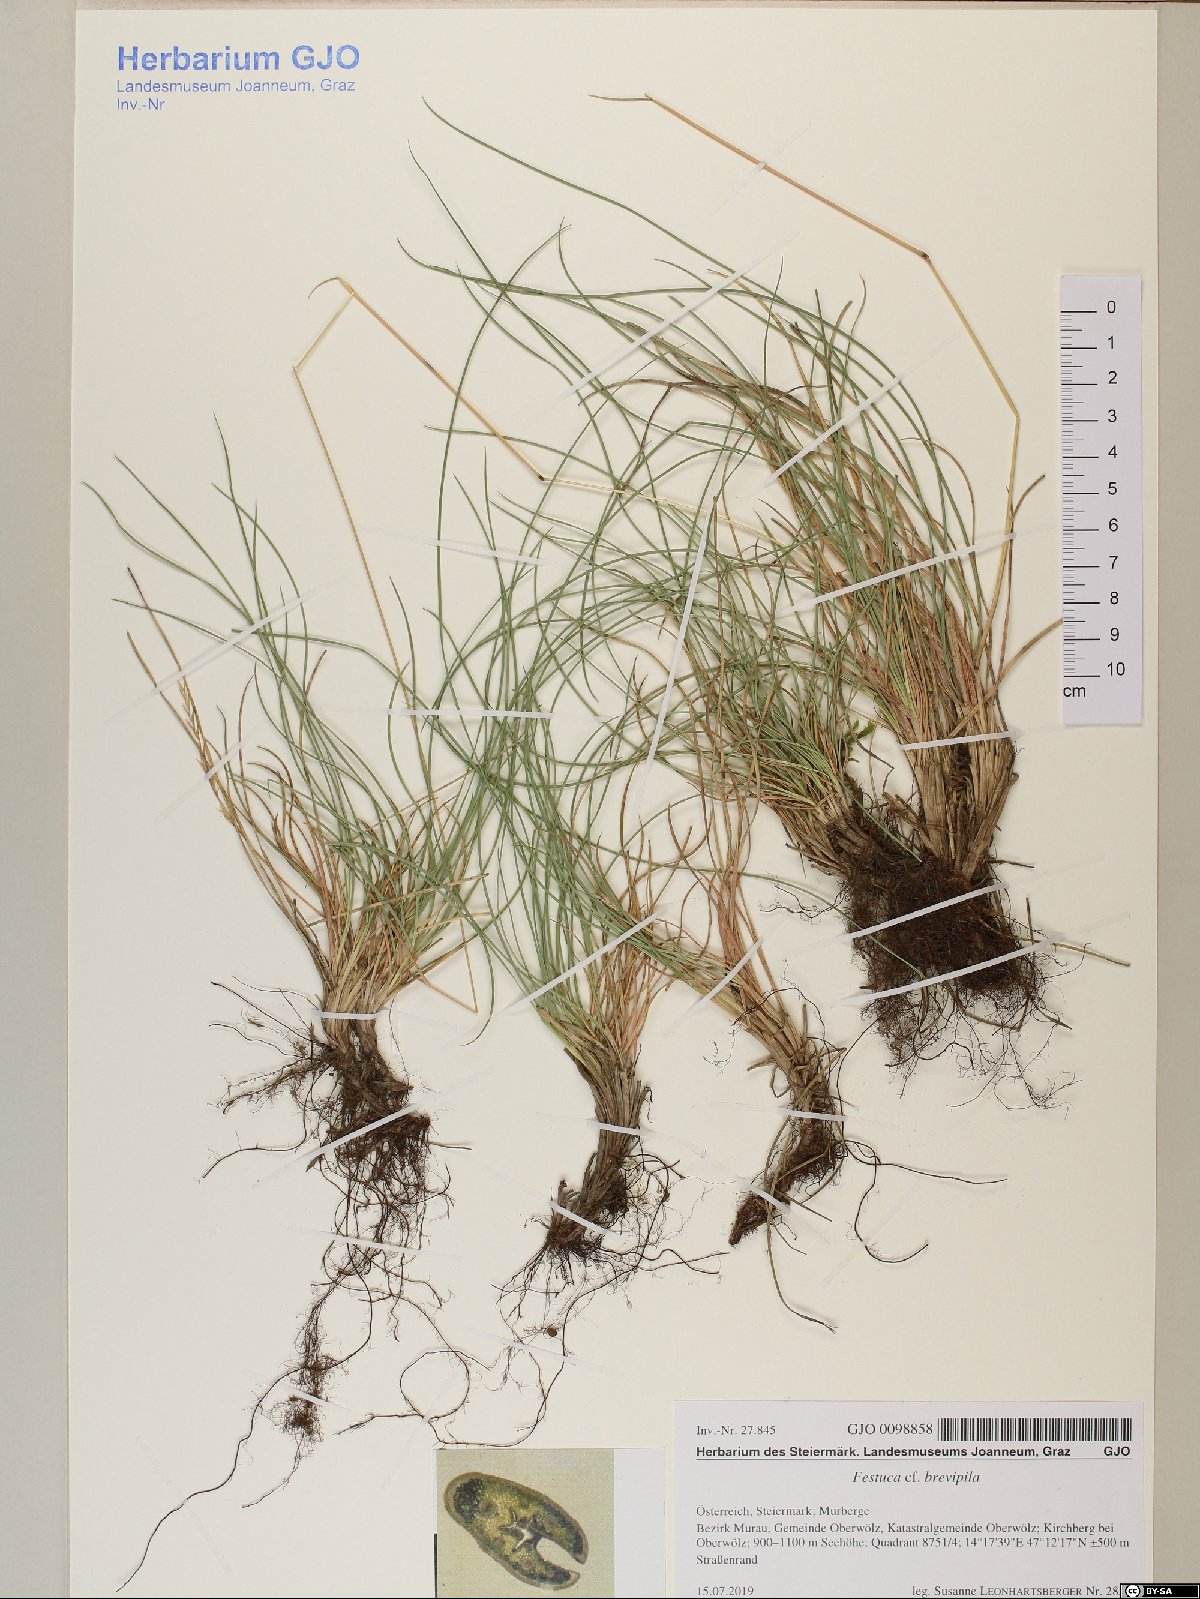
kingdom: Plantae
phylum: Tracheophyta
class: Liliopsida
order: Poales
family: Poaceae
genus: Festuca
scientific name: Festuca trachyphylla
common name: Hard fescue
